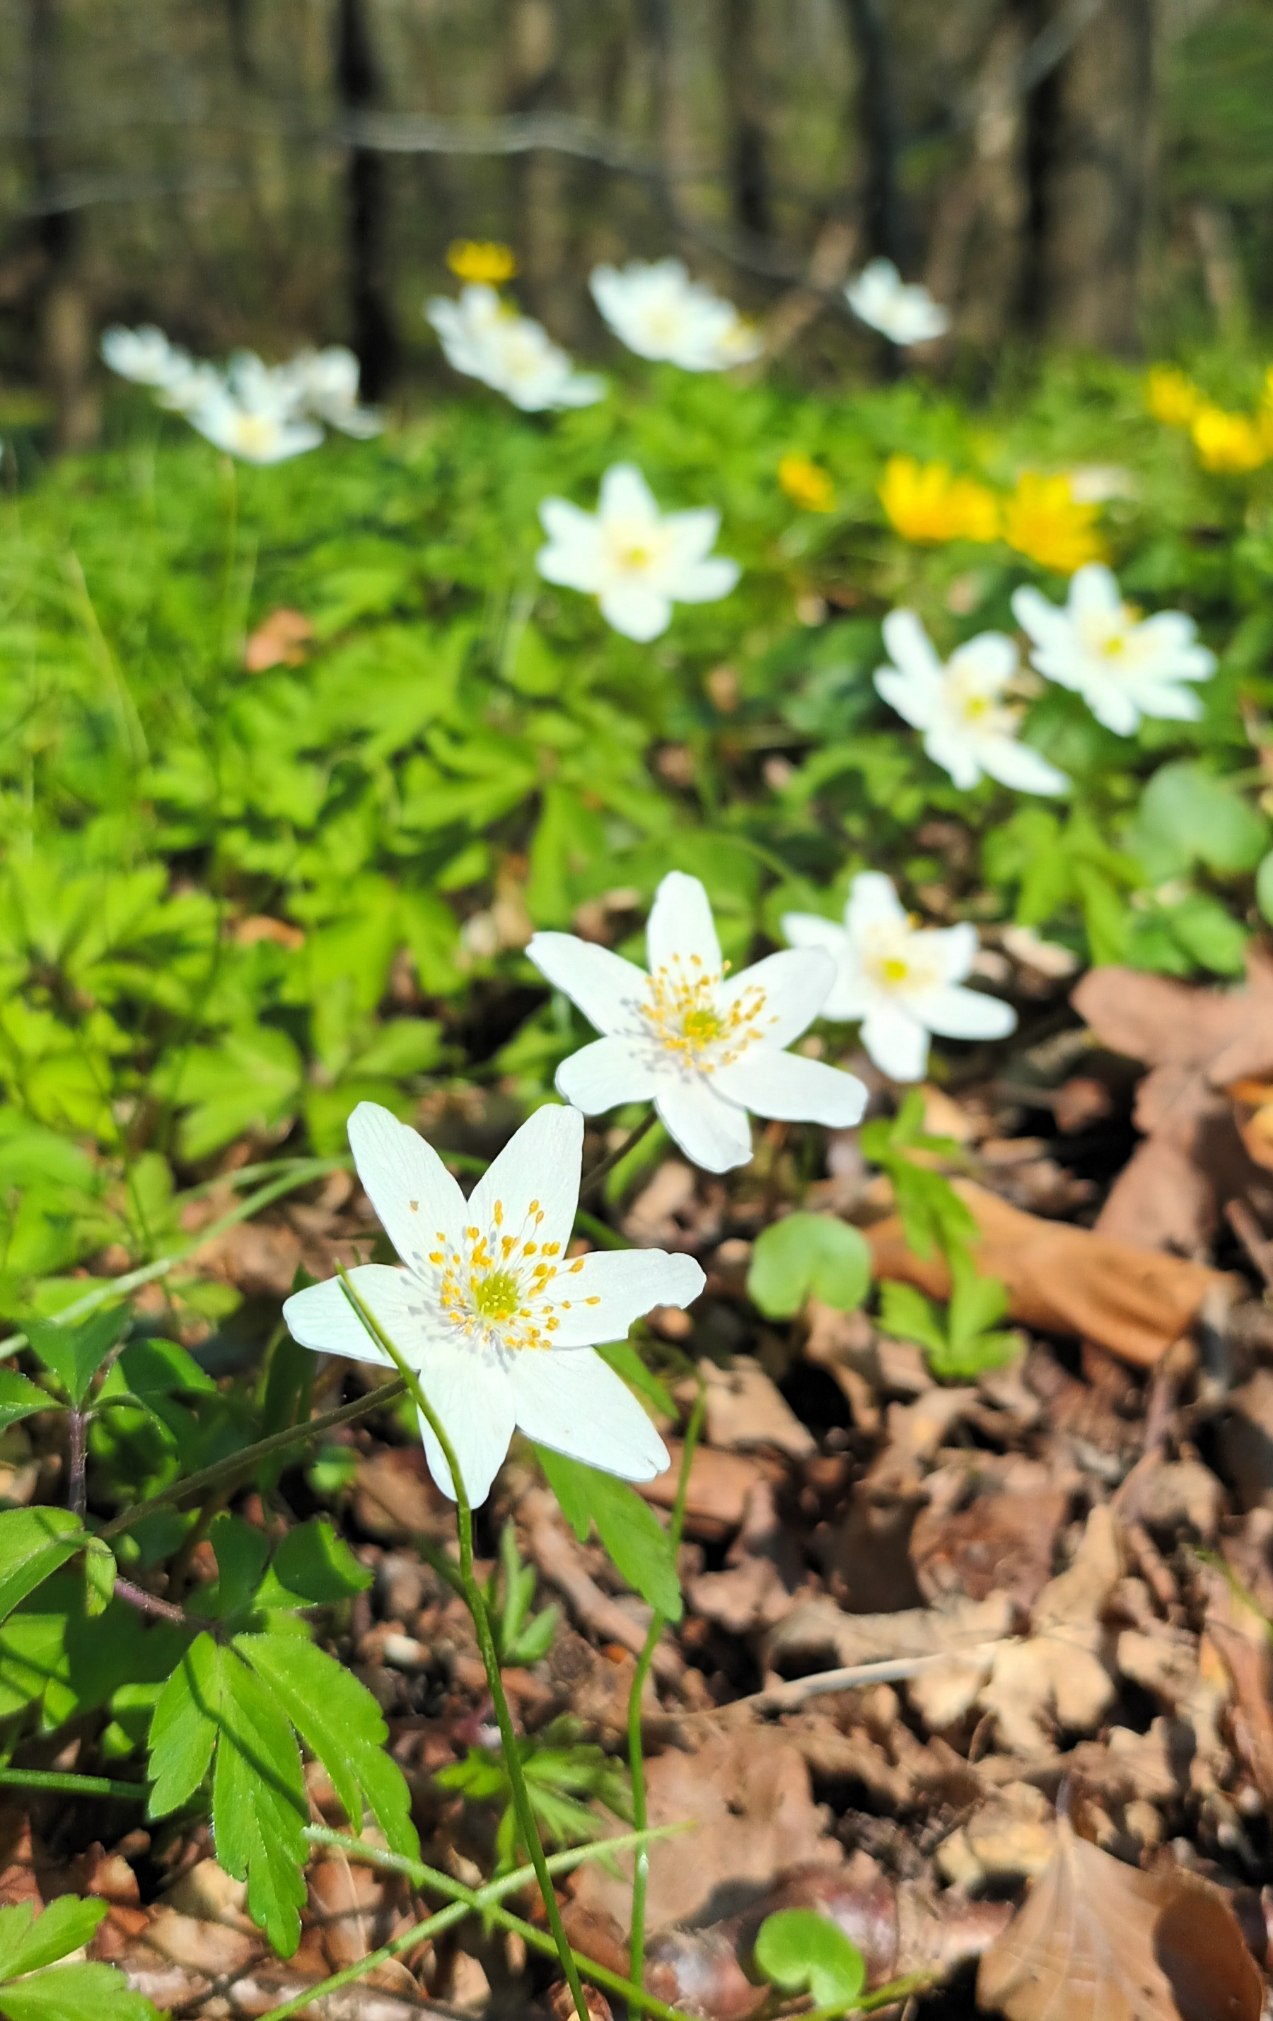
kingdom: Plantae
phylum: Tracheophyta
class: Magnoliopsida
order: Ranunculales
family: Ranunculaceae
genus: Anemone
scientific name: Anemone nemorosa
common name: Hvid anemone
